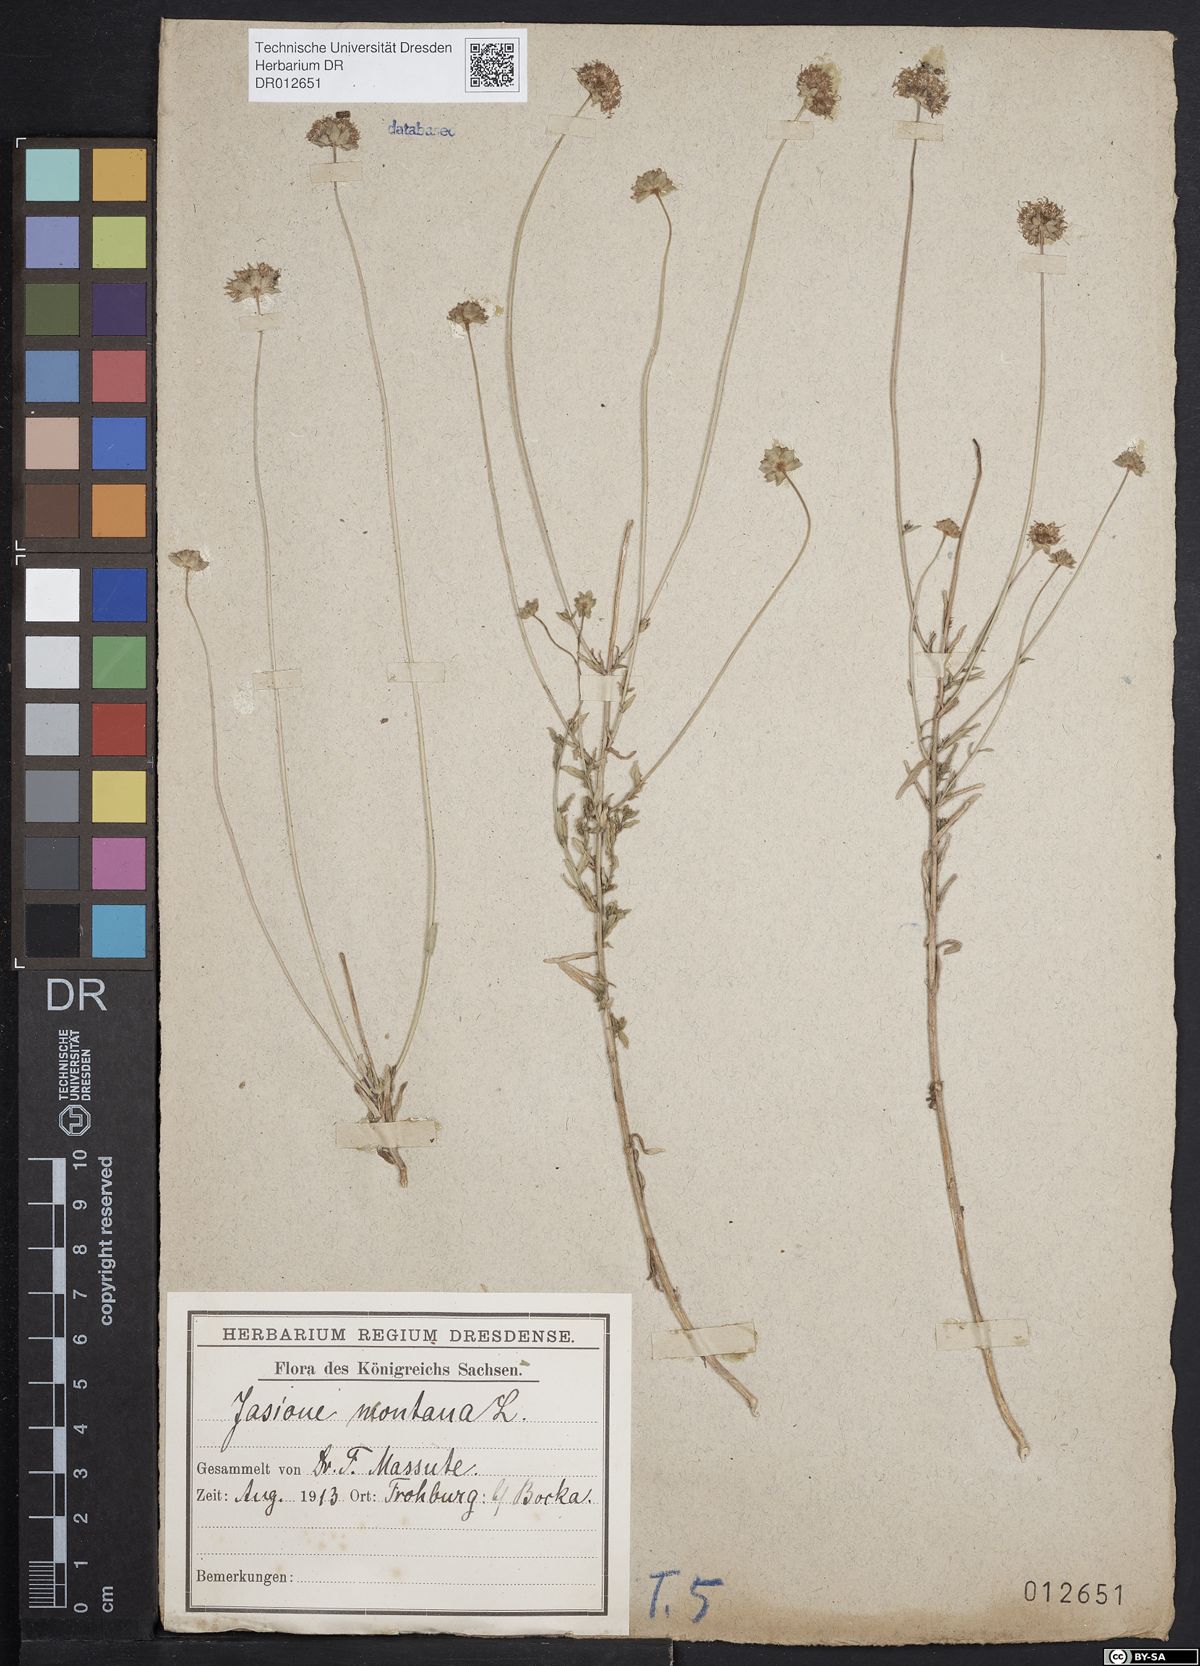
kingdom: Plantae
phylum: Tracheophyta
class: Magnoliopsida
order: Asterales
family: Campanulaceae
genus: Jasione
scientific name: Jasione montana
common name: Sheep's-bit
